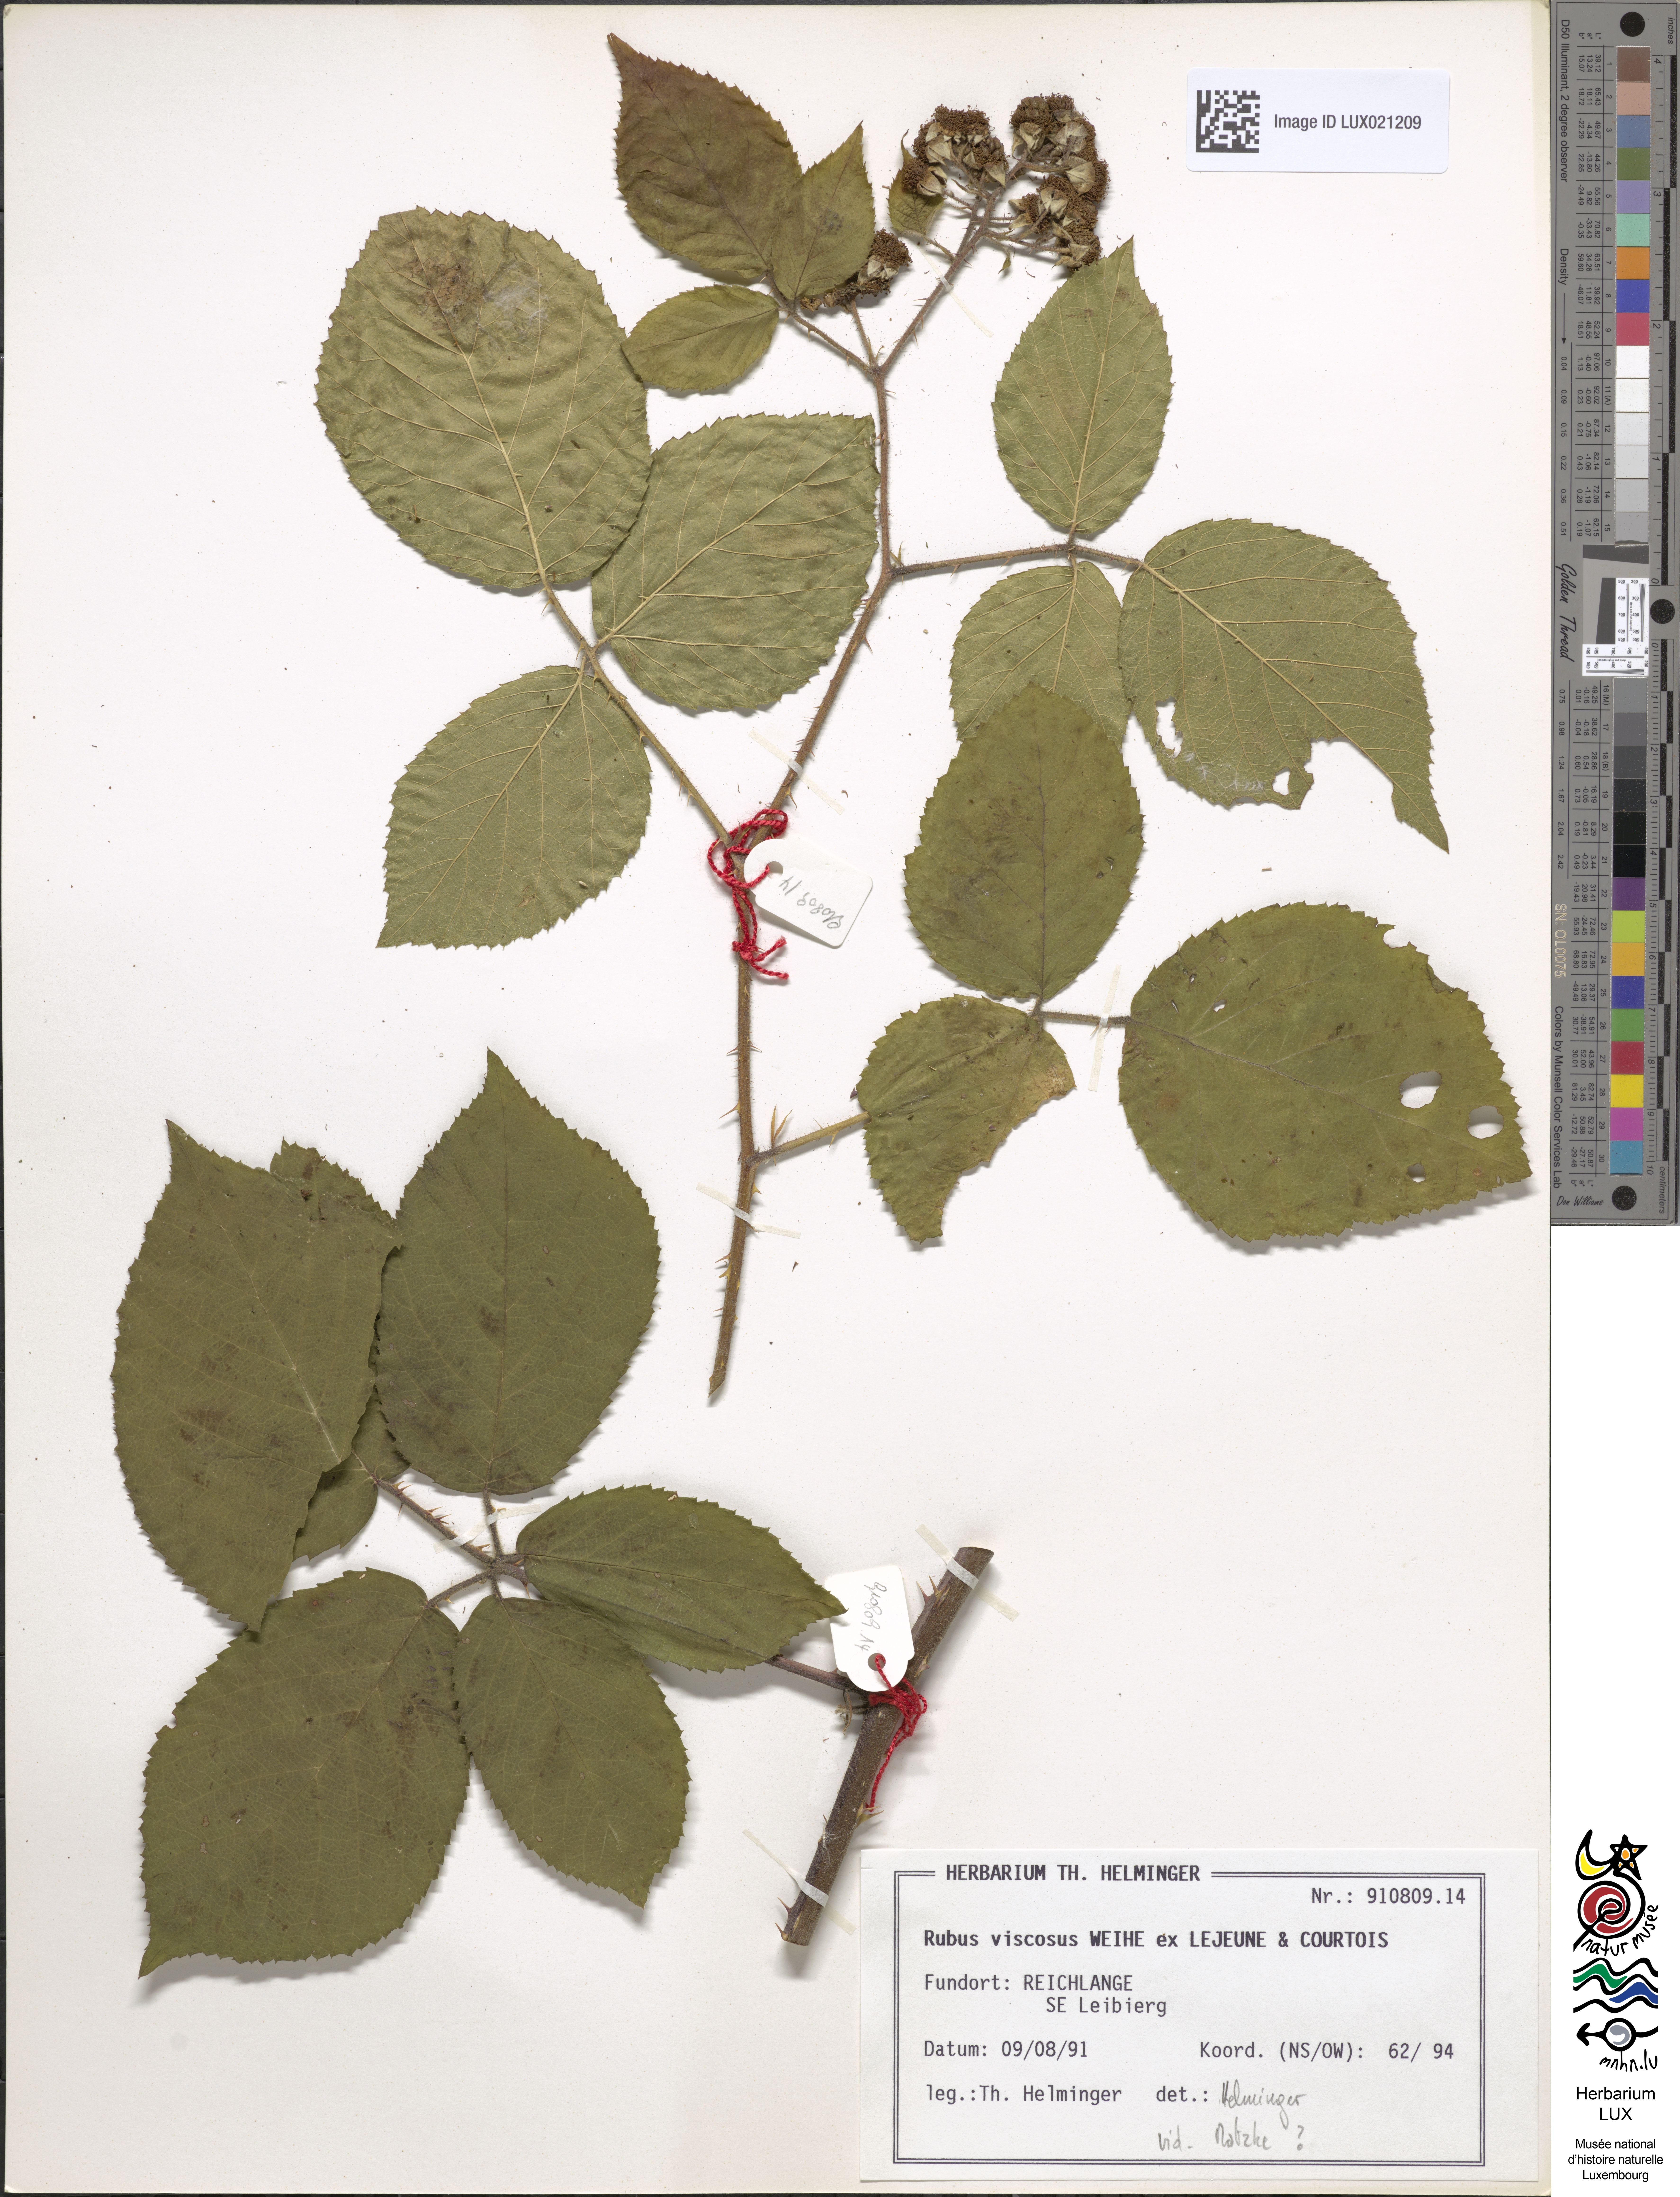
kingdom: Plantae
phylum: Tracheophyta
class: Magnoliopsida
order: Rosales
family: Rosaceae
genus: Rubus
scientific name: Rubus viscosus
